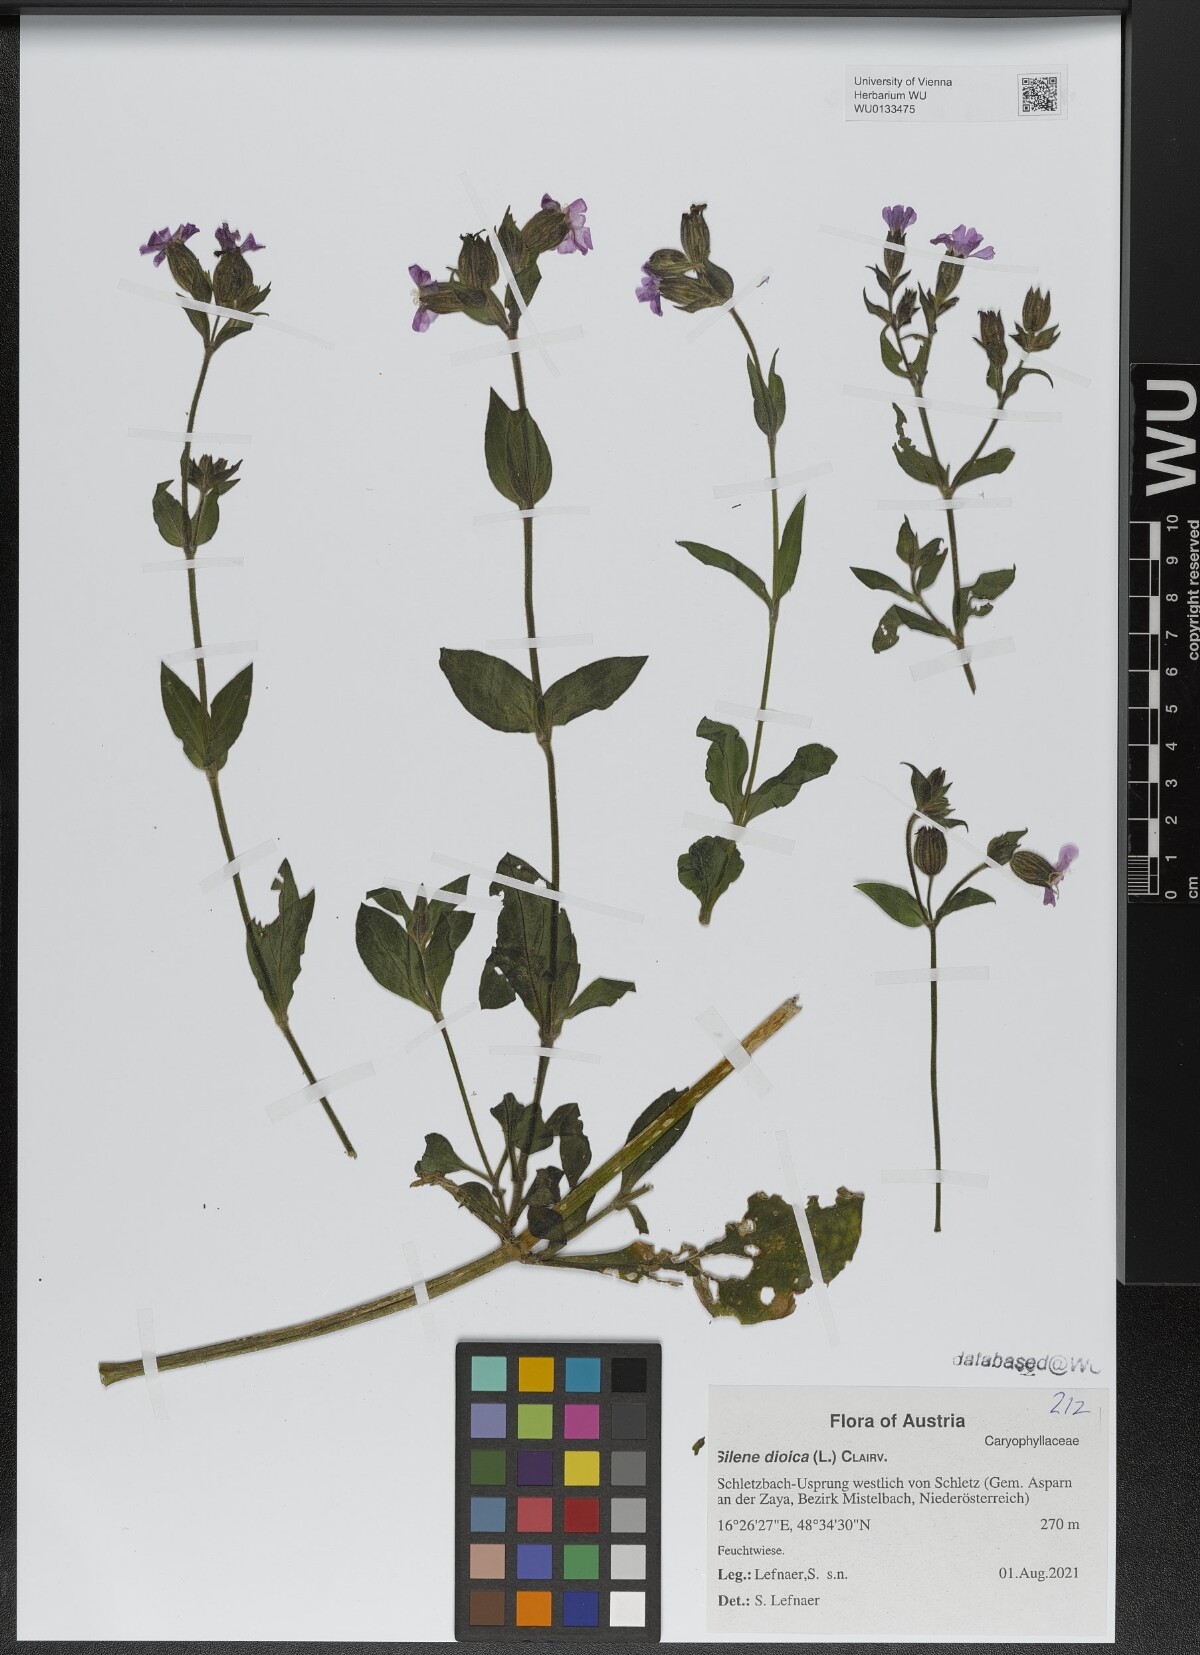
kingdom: Plantae
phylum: Tracheophyta
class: Magnoliopsida
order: Caryophyllales
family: Caryophyllaceae
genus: Silene
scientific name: Silene dioica
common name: Red campion
